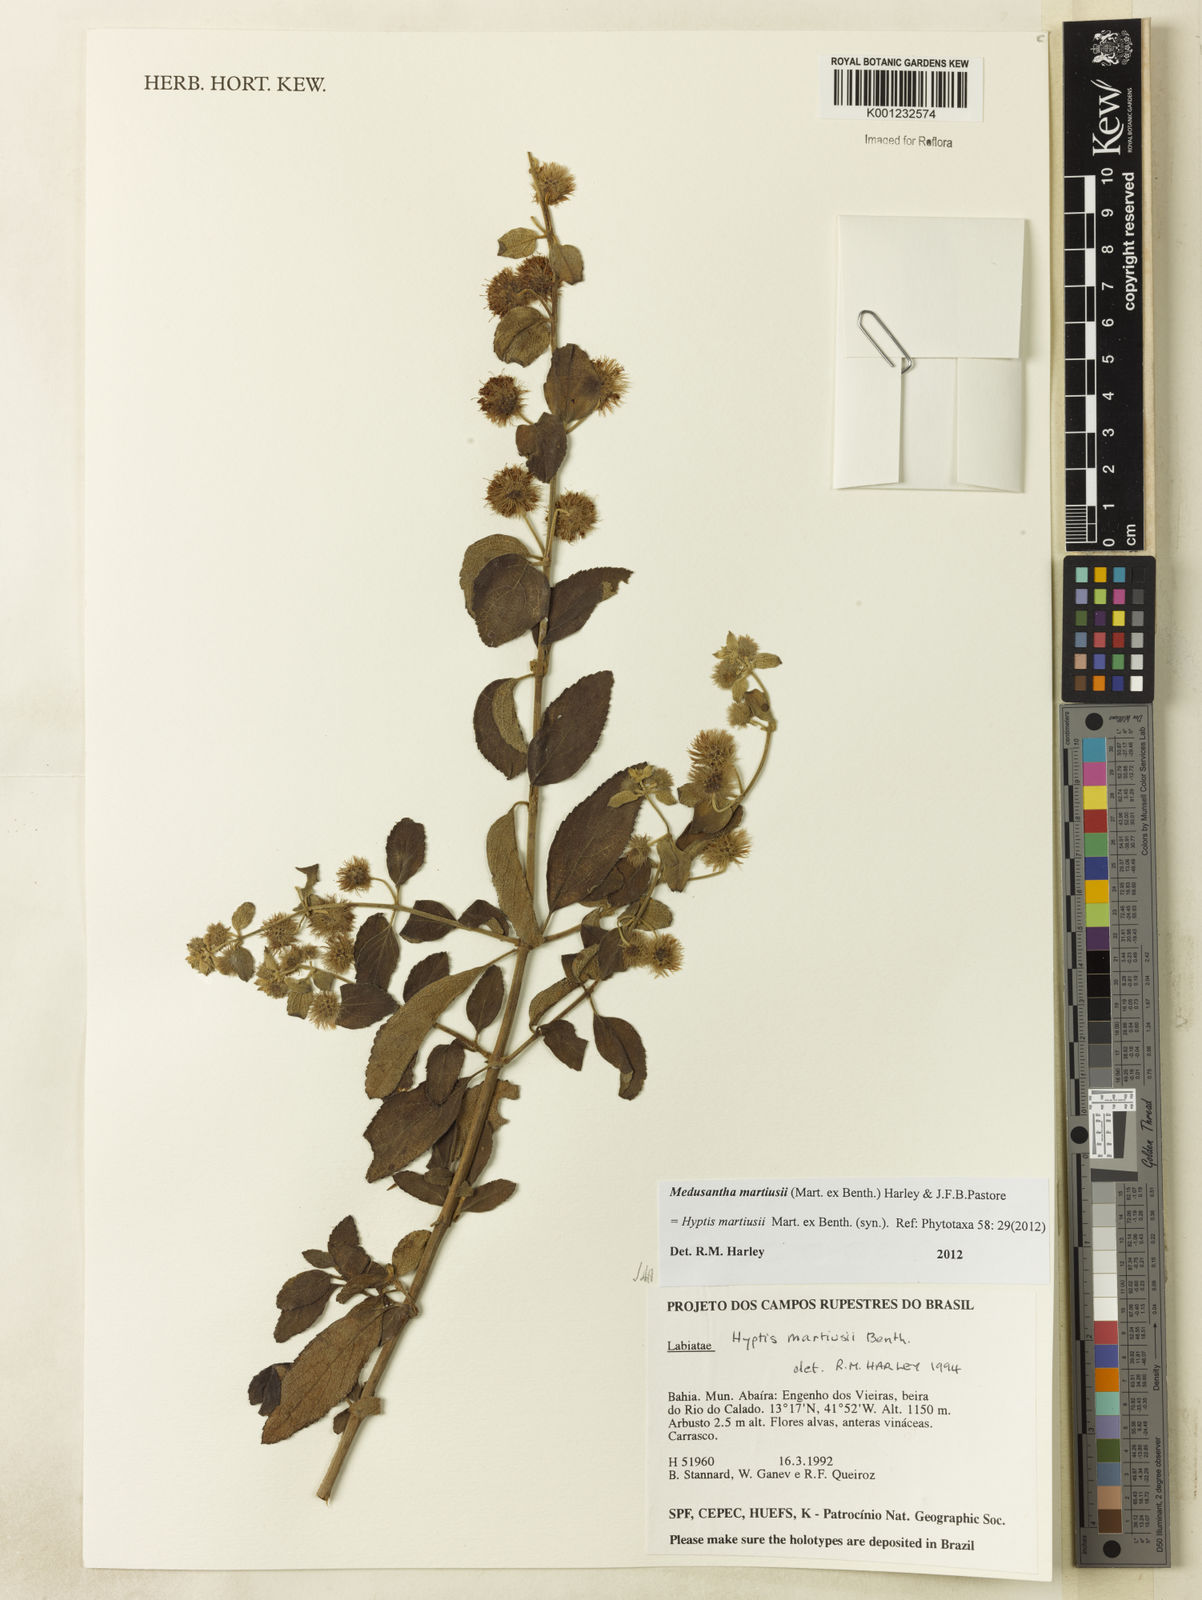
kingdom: Plantae
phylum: Tracheophyta
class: Magnoliopsida
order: Lamiales
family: Lamiaceae
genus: Medusantha
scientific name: Medusantha martiusii
